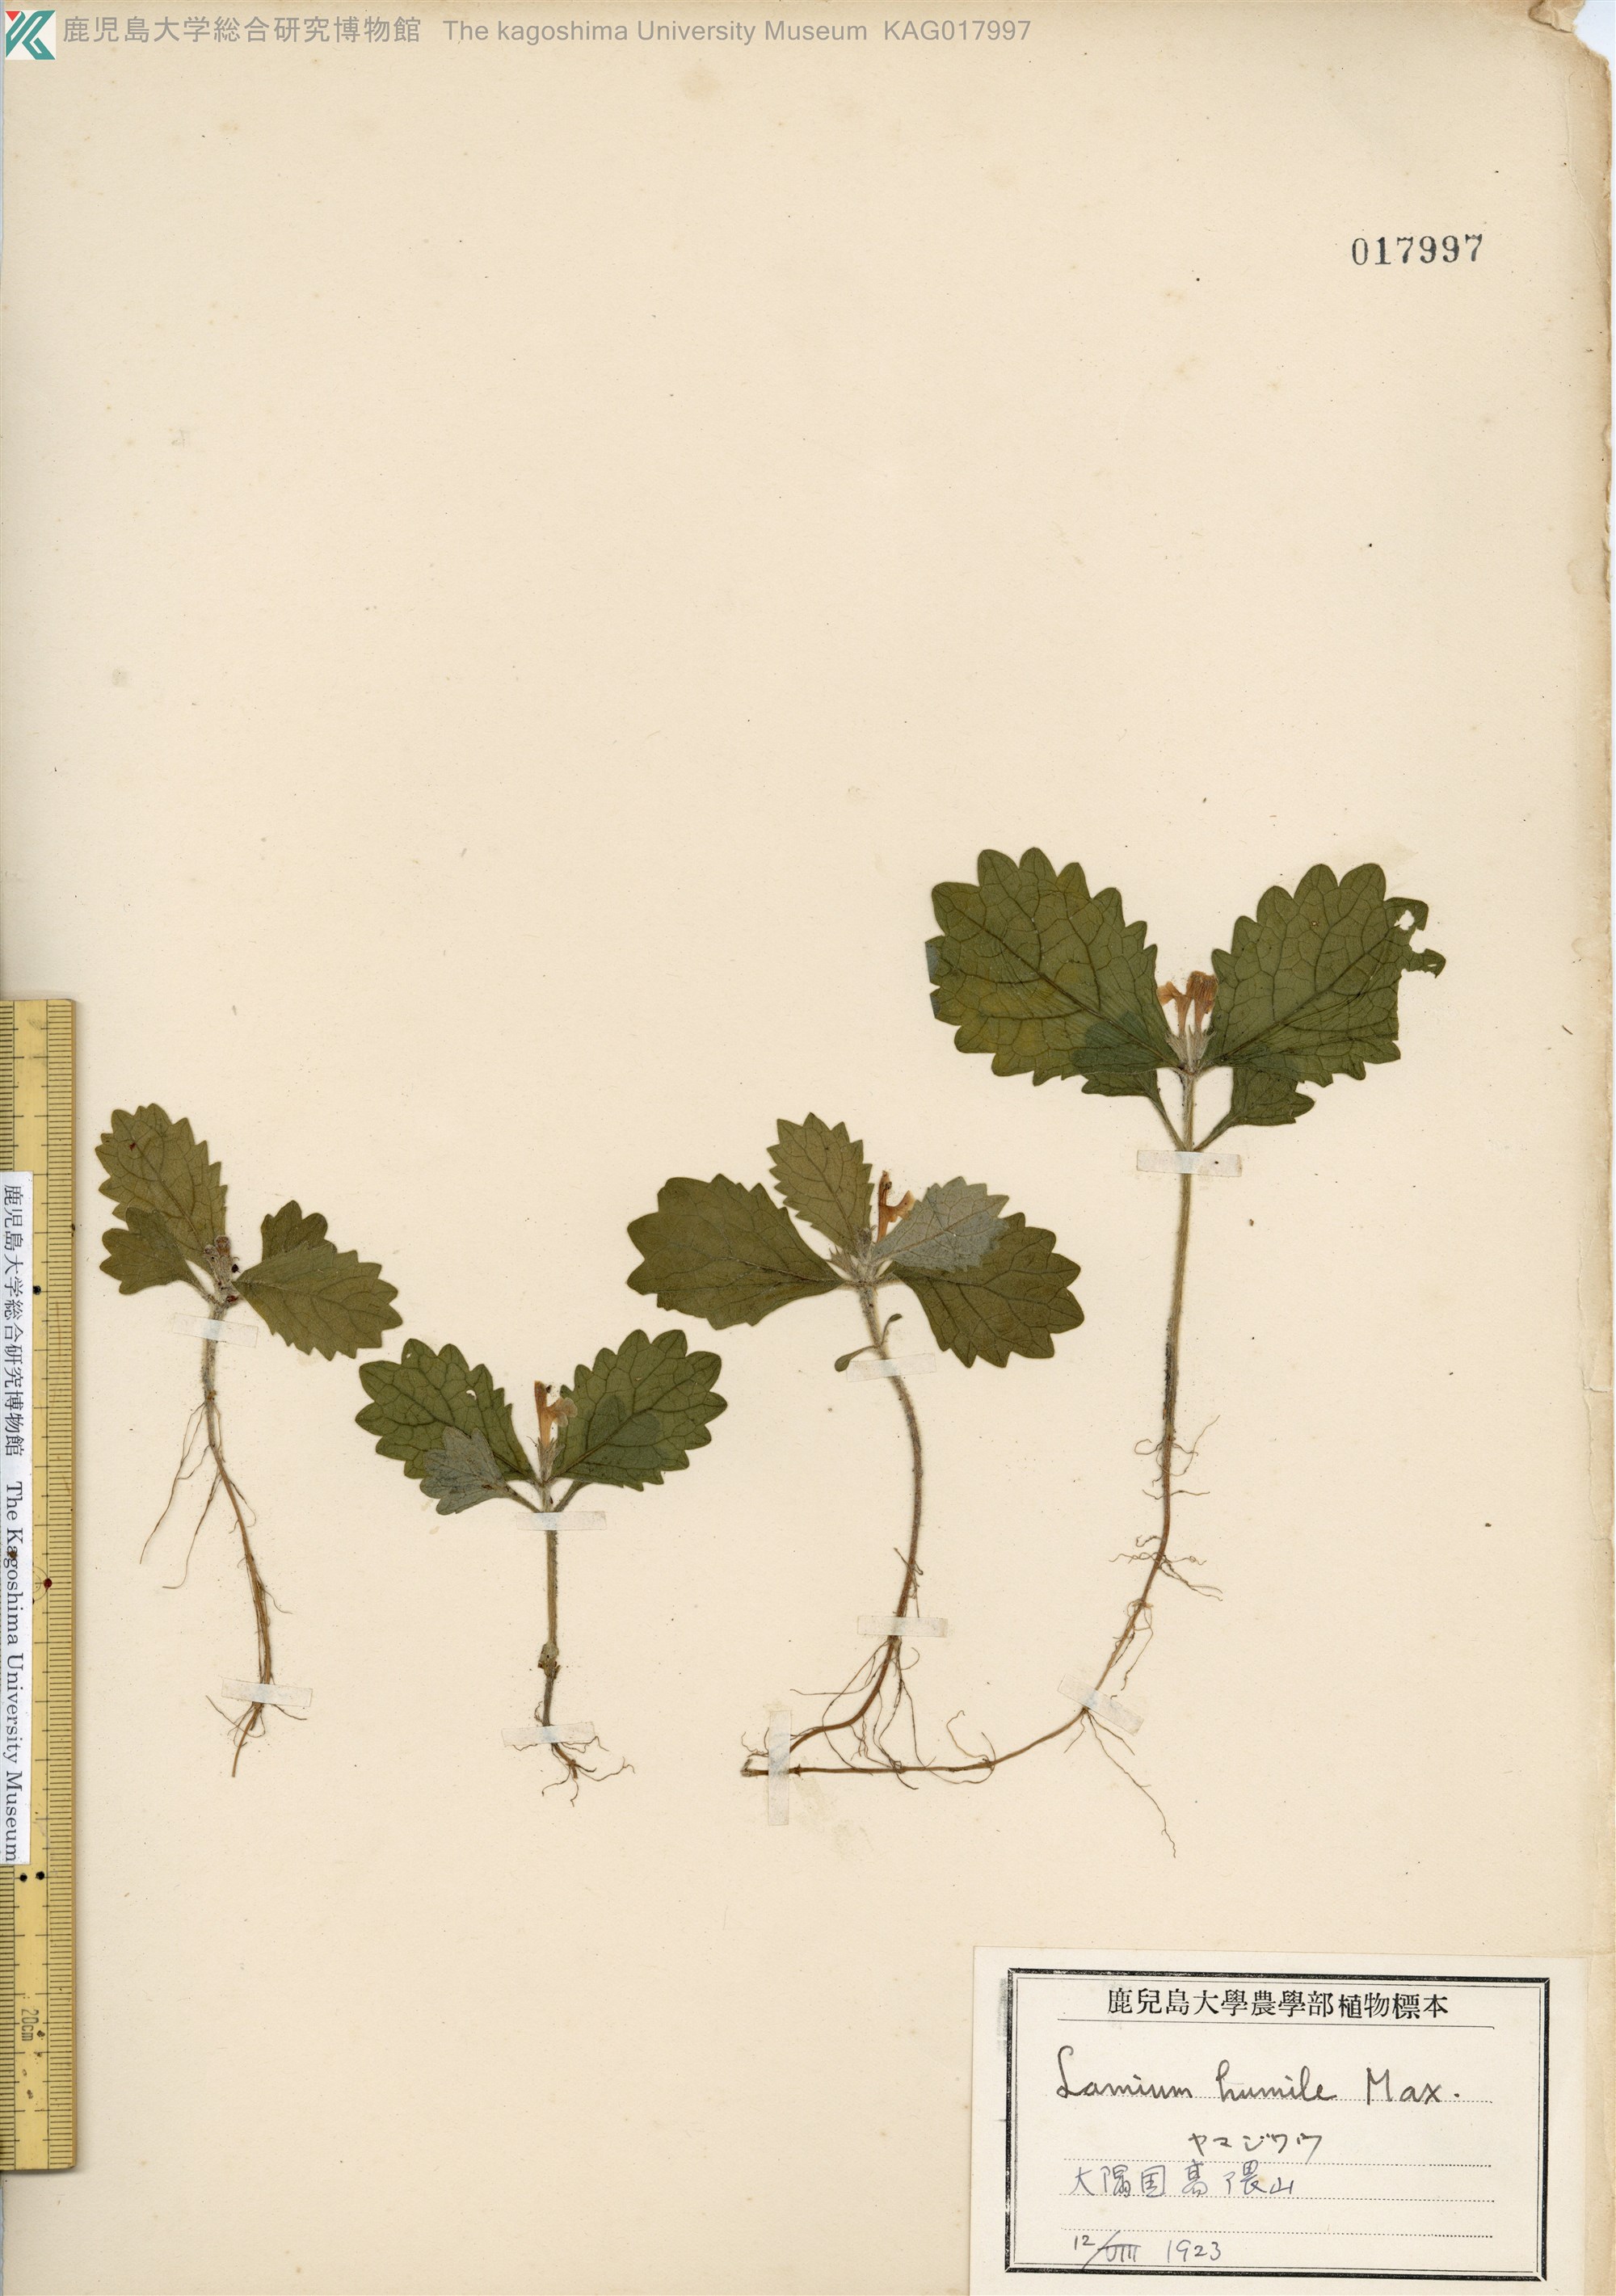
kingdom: Plantae
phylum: Tracheophyta
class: Magnoliopsida
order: Lamiales
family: Lamiaceae
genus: Ajugoides
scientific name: Ajugoides humilis
